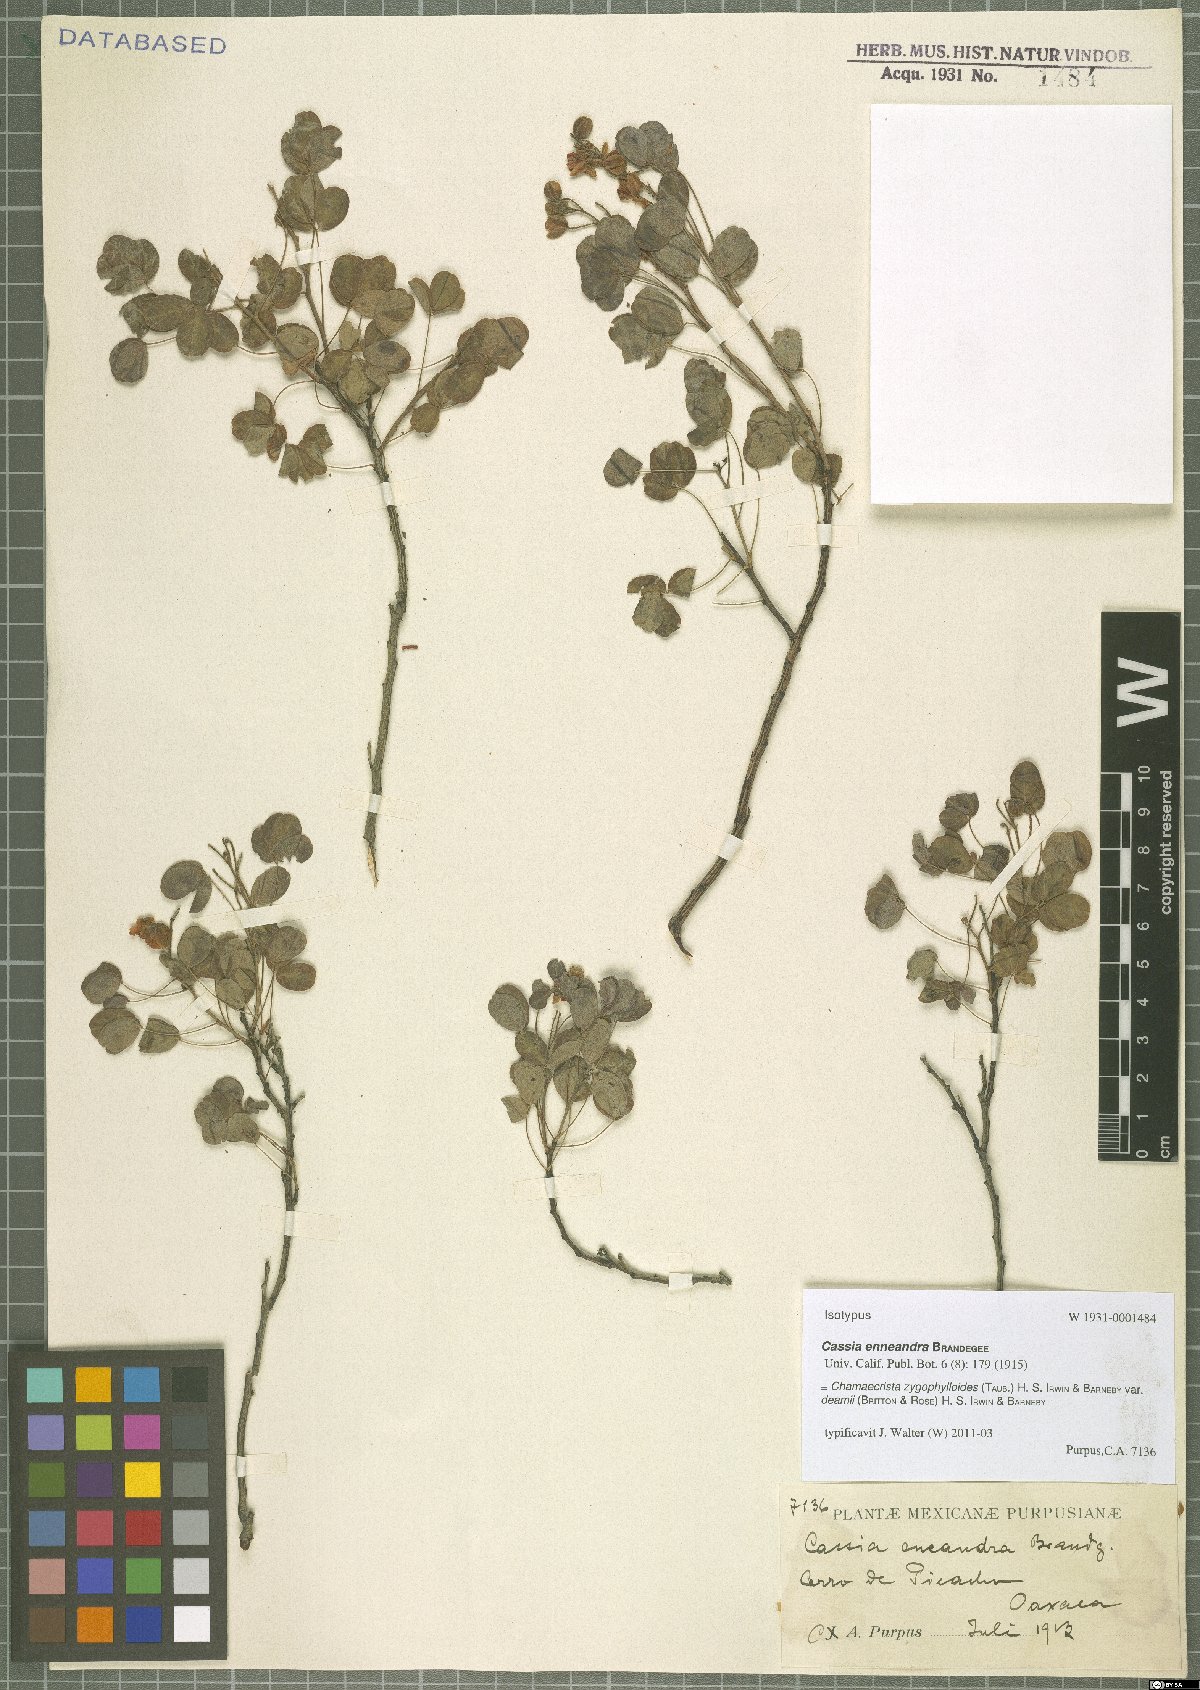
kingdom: Plantae
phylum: Tracheophyta
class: Magnoliopsida
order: Fabales
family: Fabaceae
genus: Chamaecrista
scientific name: Chamaecrista zygophylloides
